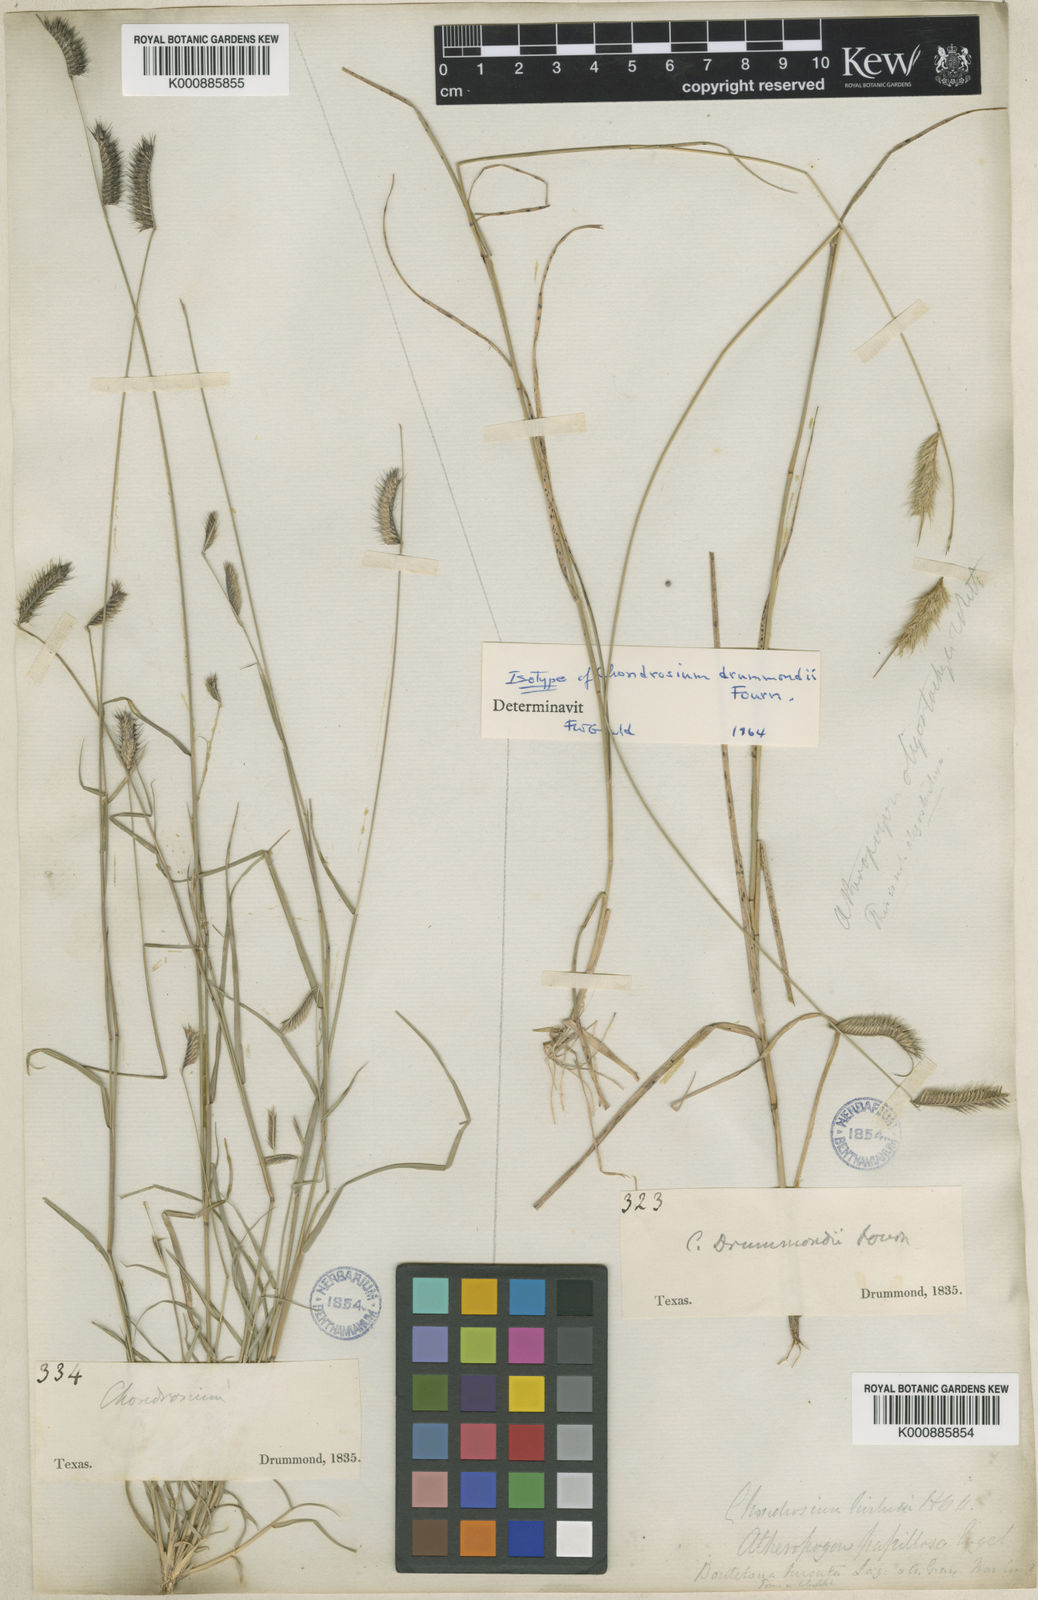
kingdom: Plantae
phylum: Tracheophyta
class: Liliopsida
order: Poales
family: Poaceae
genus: Bouteloua
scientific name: Bouteloua
